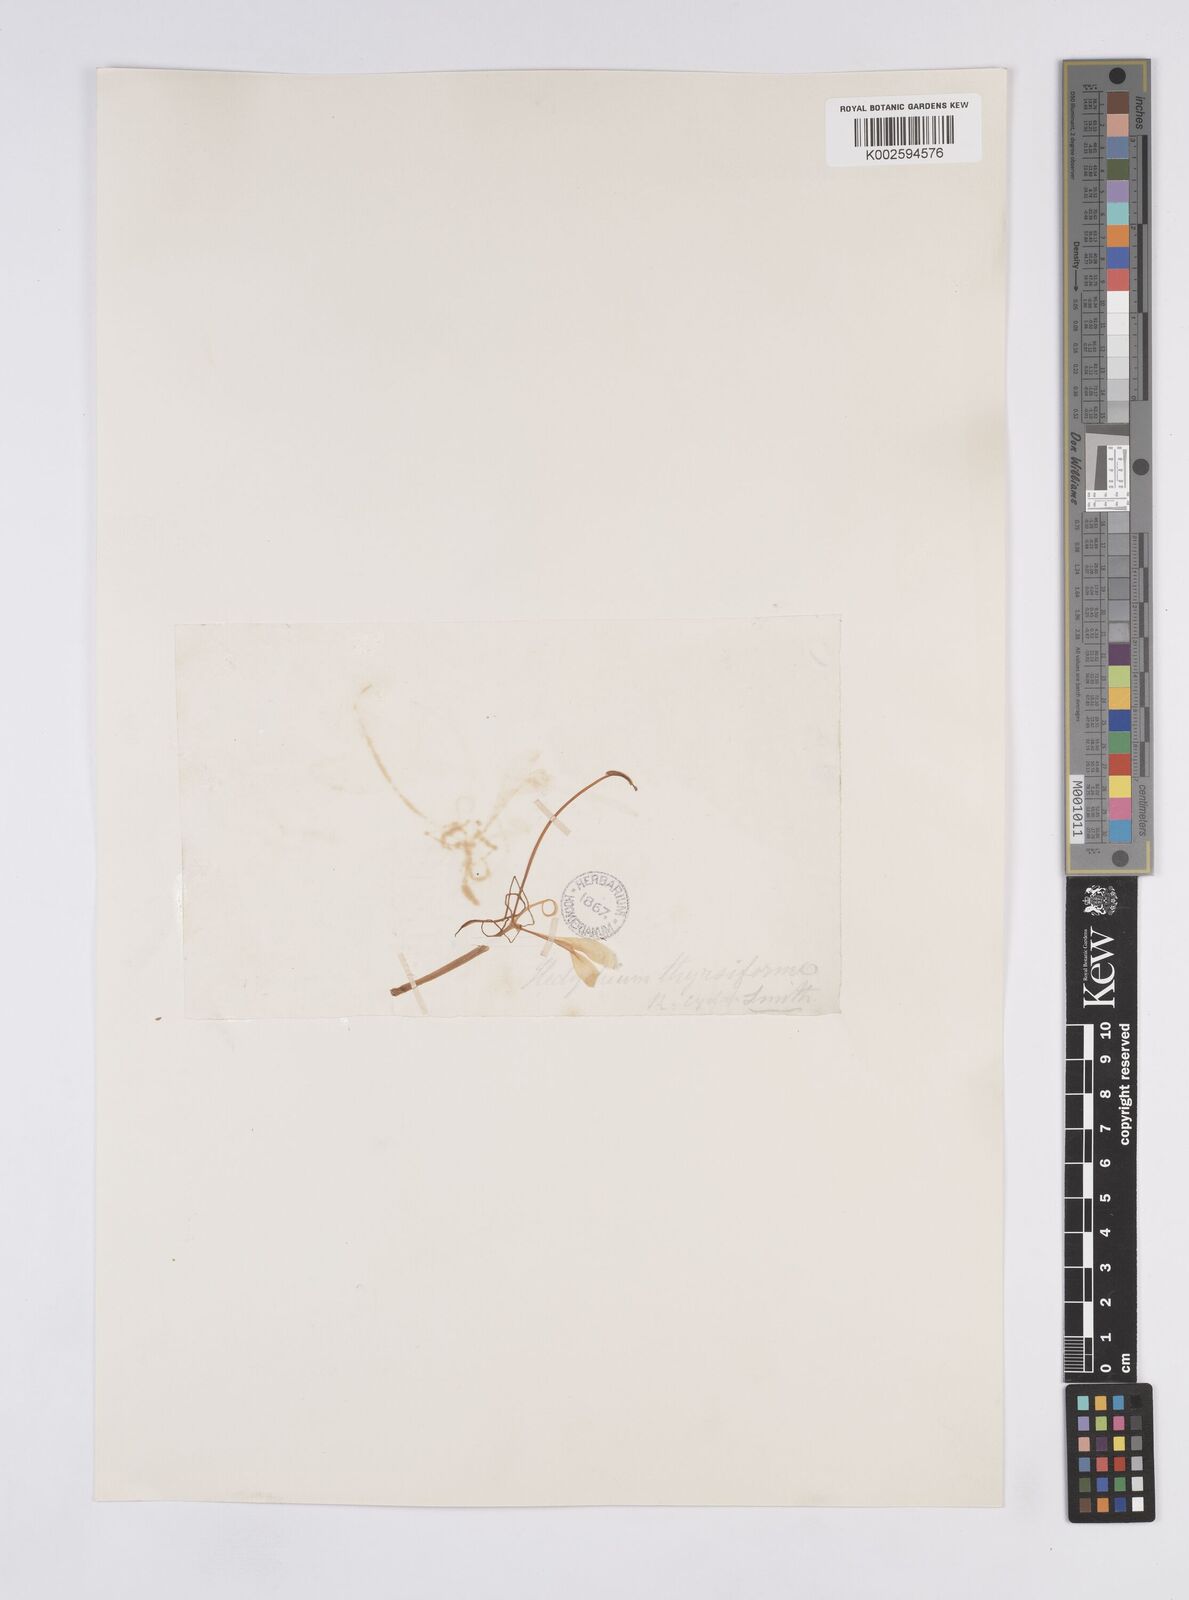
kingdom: Plantae
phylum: Tracheophyta
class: Liliopsida
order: Zingiberales
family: Zingiberaceae
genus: Hedychium
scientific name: Hedychium thyrsiforme
